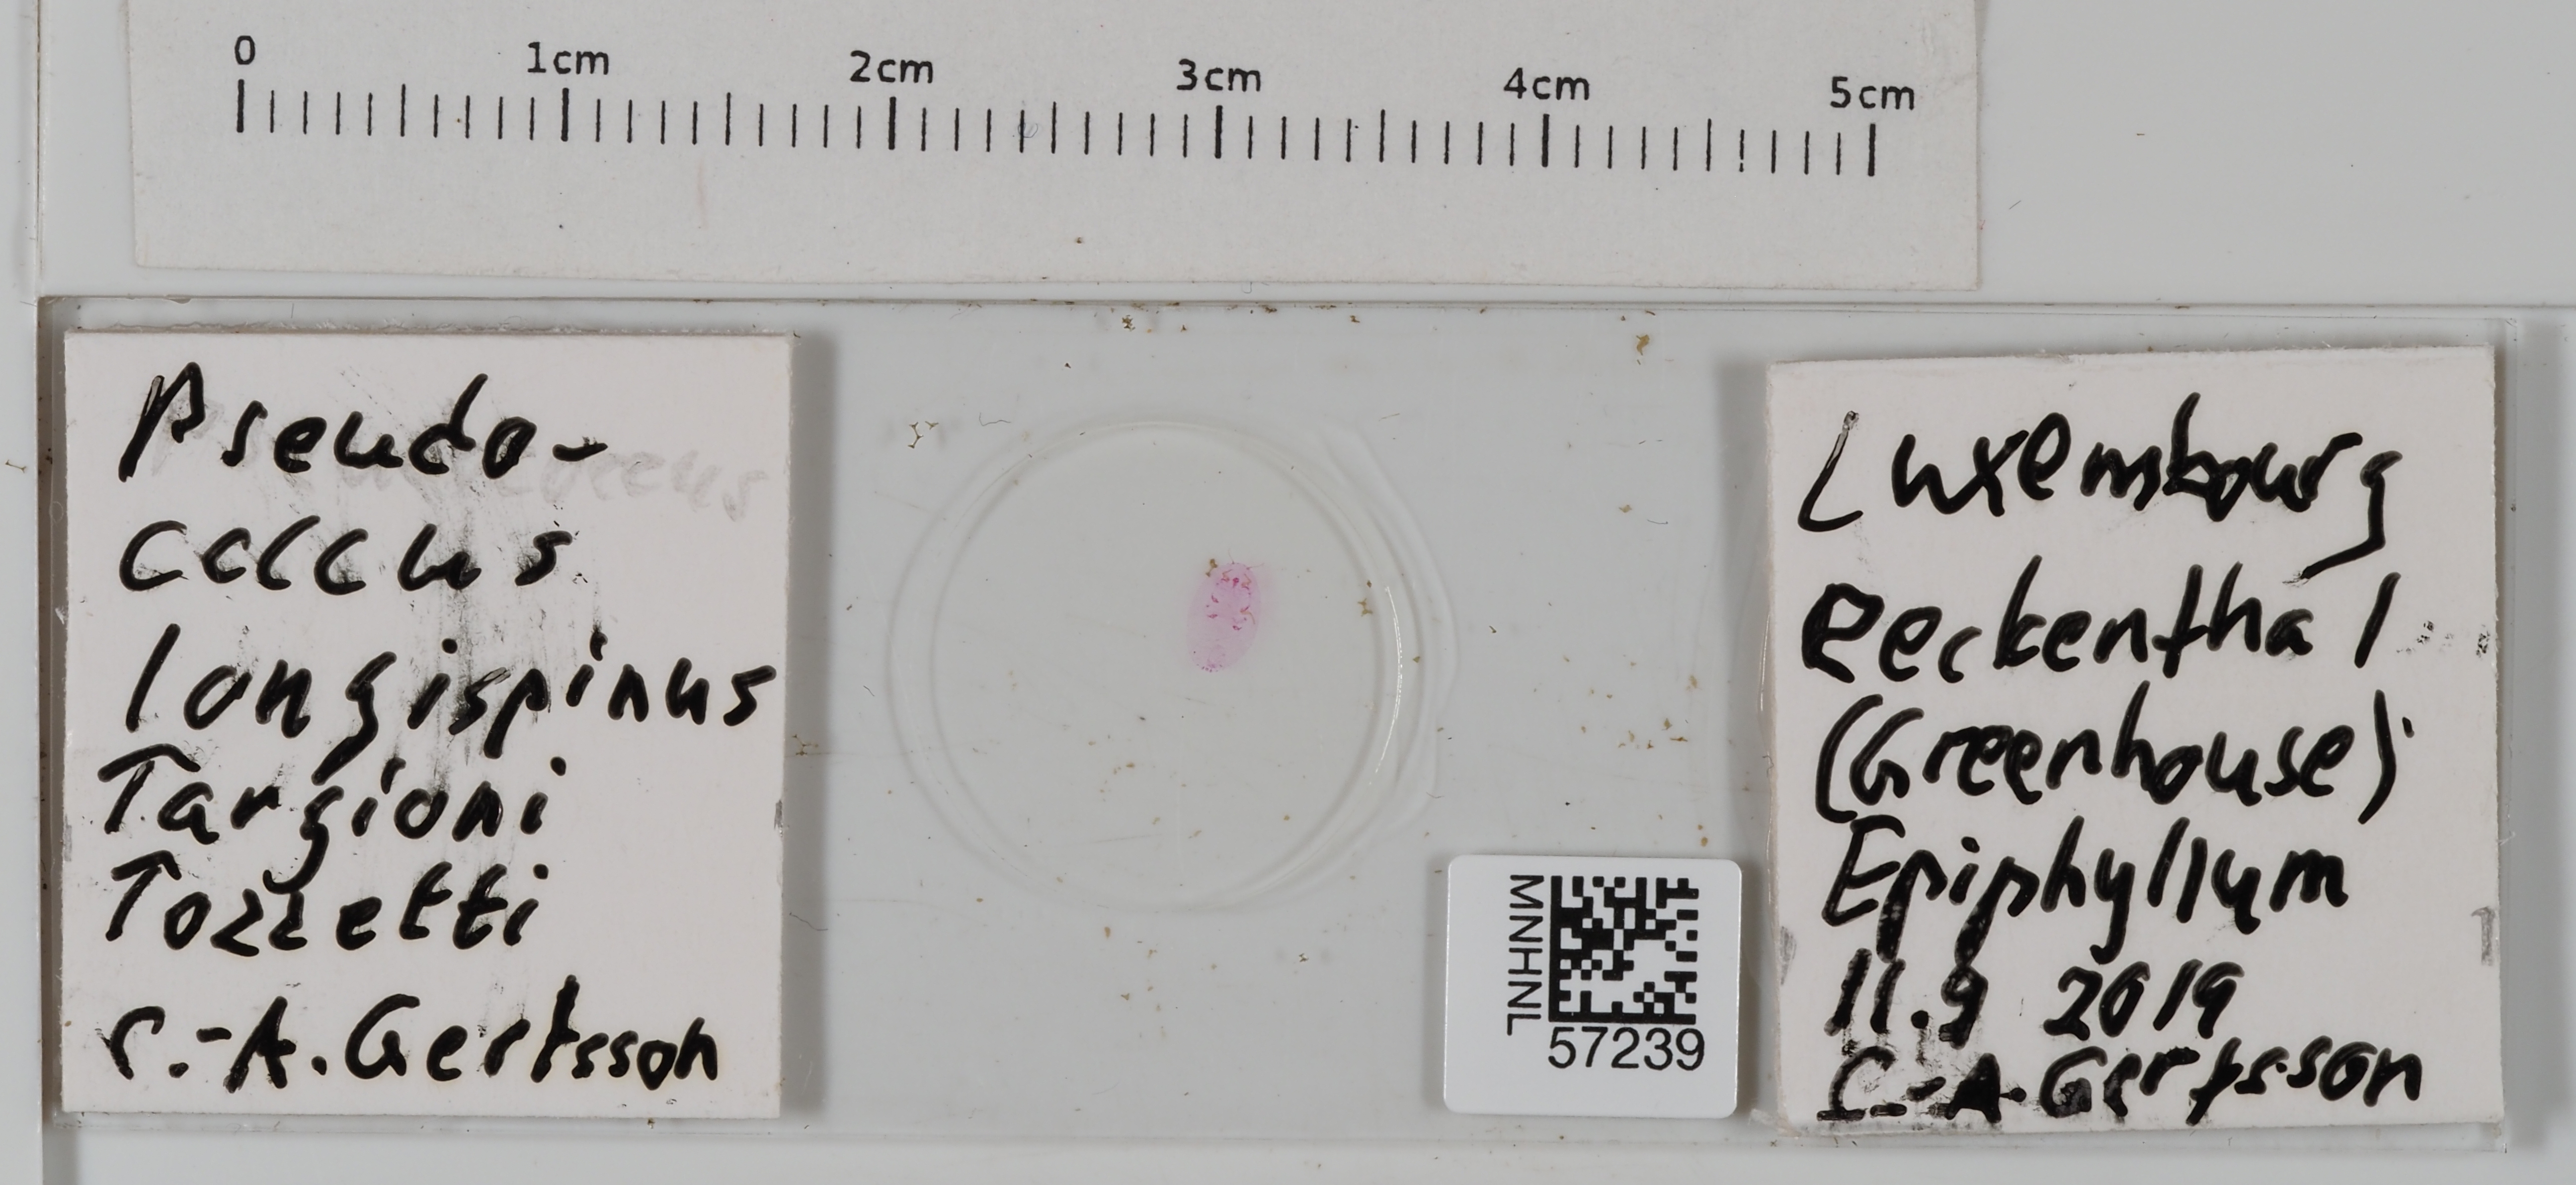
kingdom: Animalia
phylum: Arthropoda
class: Insecta
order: Hemiptera
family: Pseudococcidae
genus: Pseudococcus
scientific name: Pseudococcus longispinus
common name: Long-tailed mealybug
